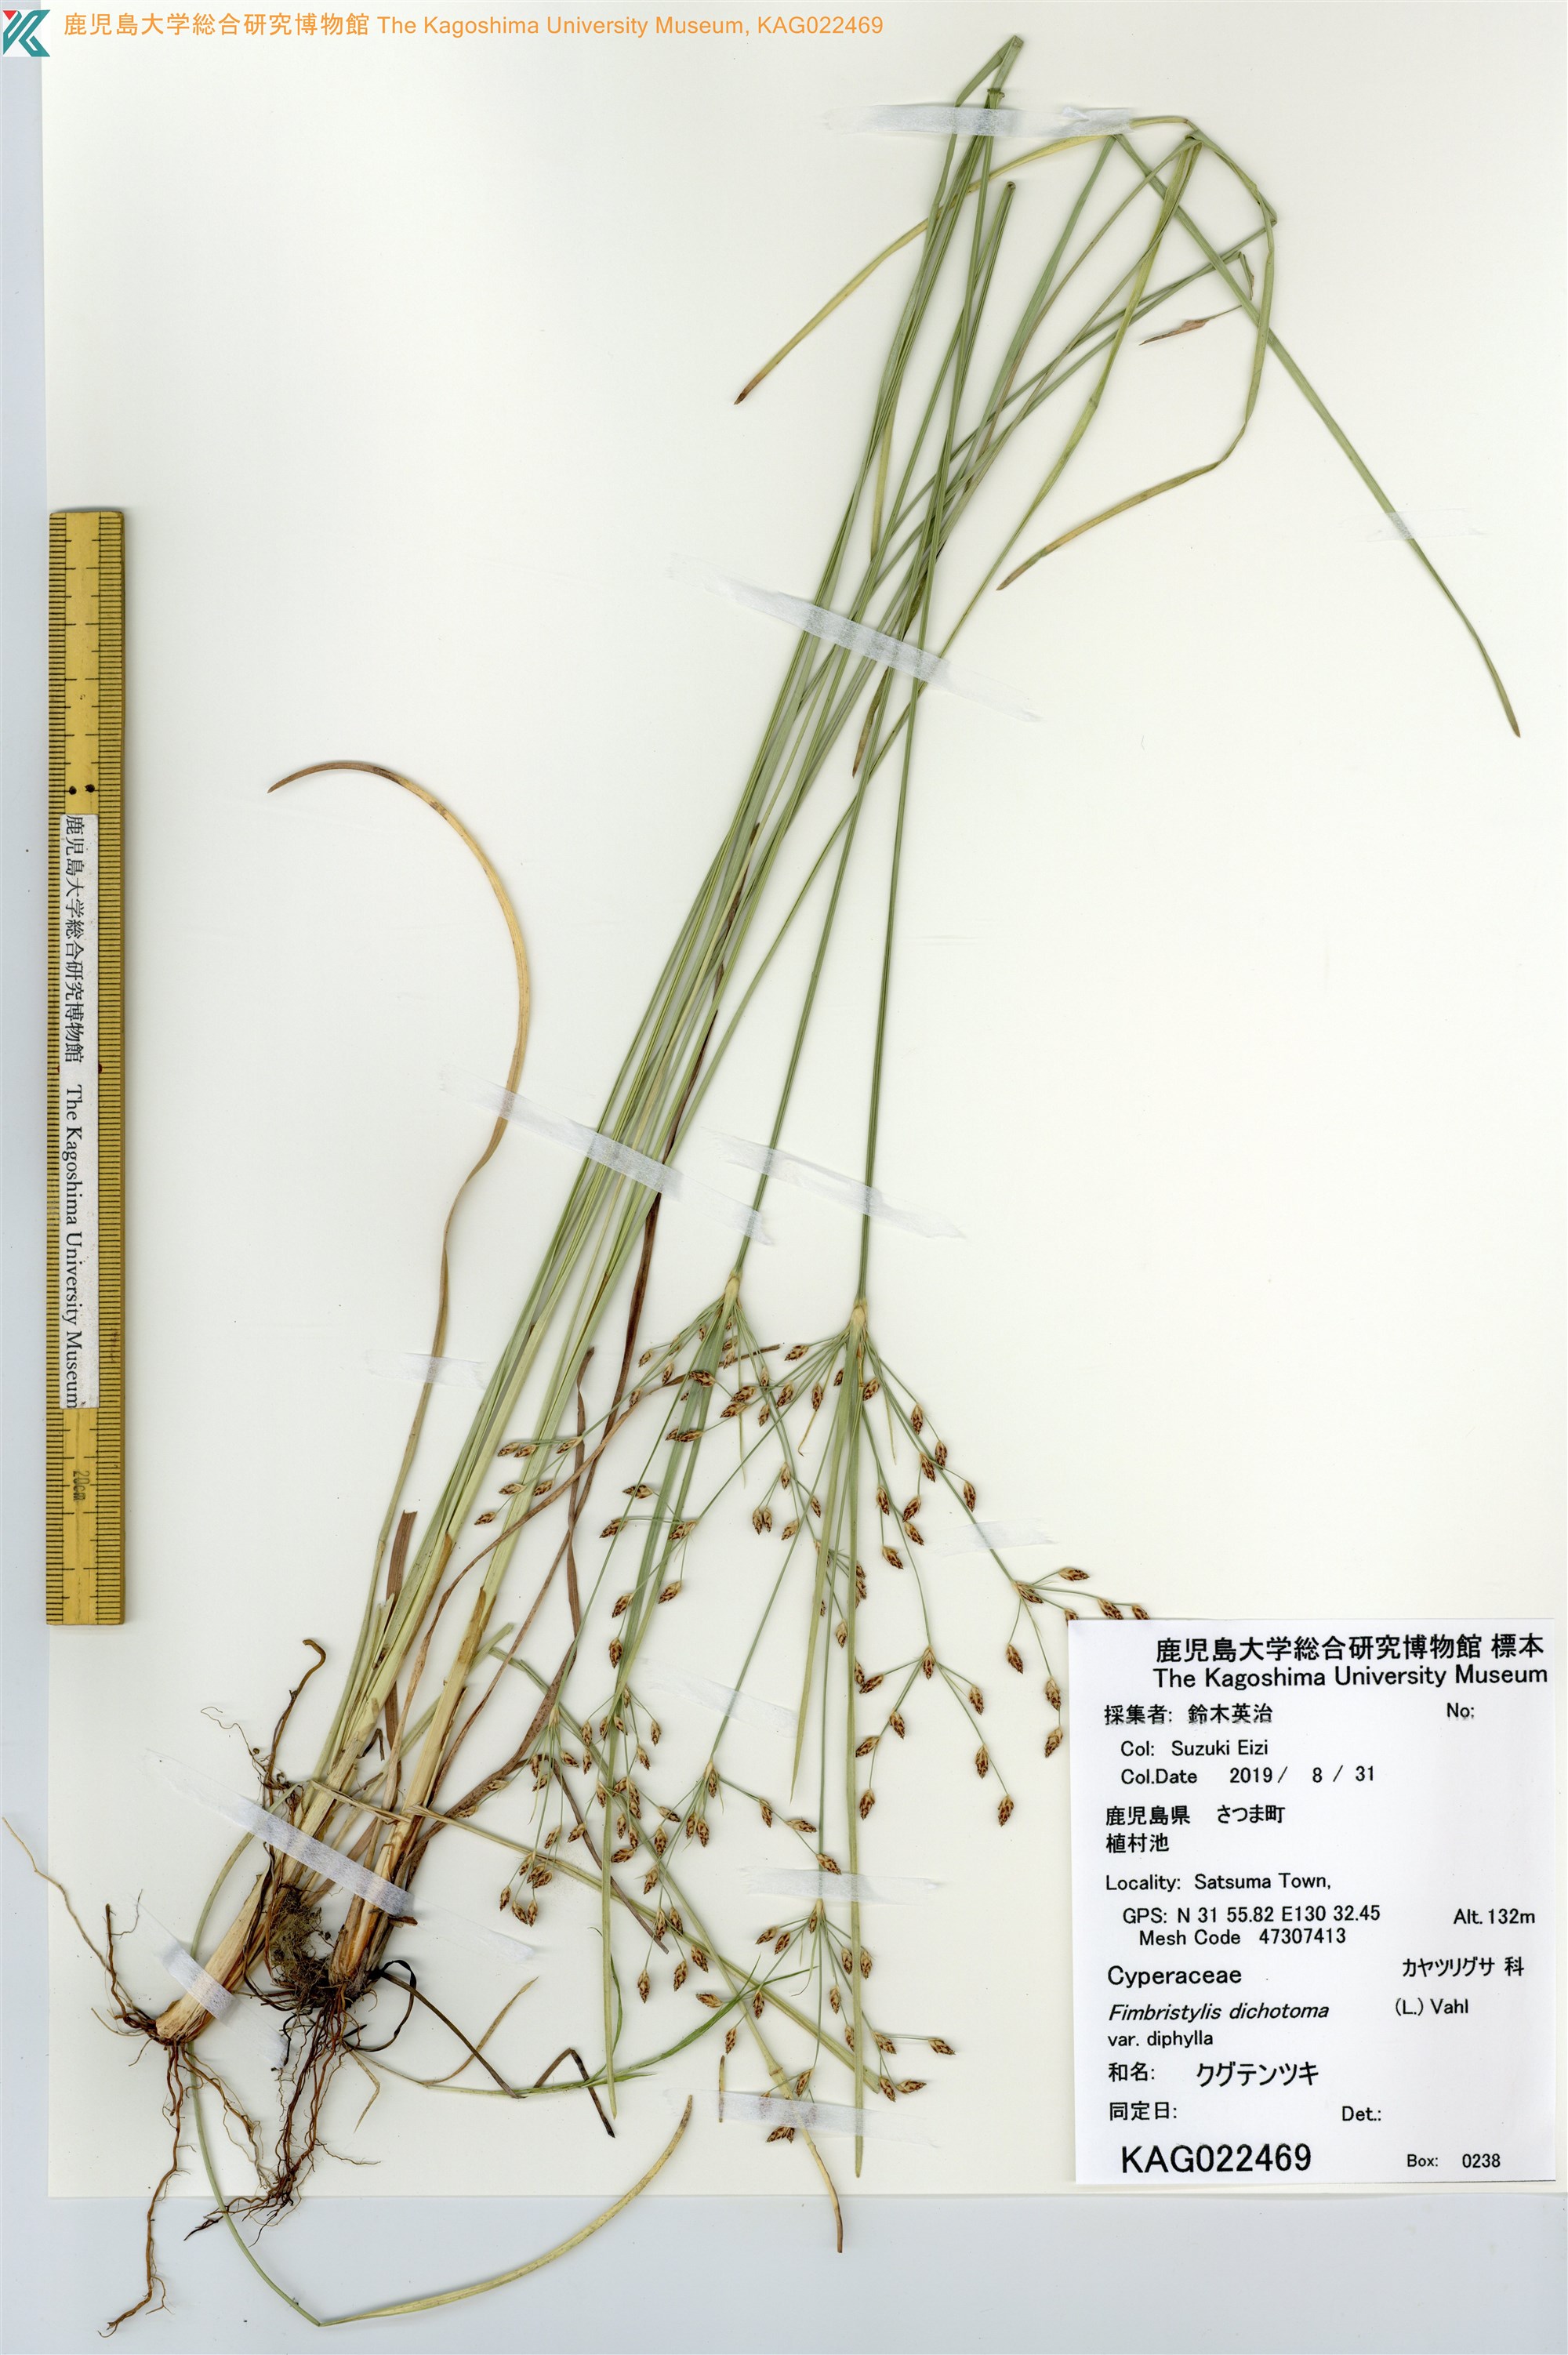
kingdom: Plantae
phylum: Tracheophyta
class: Liliopsida
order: Poales
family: Cyperaceae
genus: Fimbristylis
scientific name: Fimbristylis dichotoma
